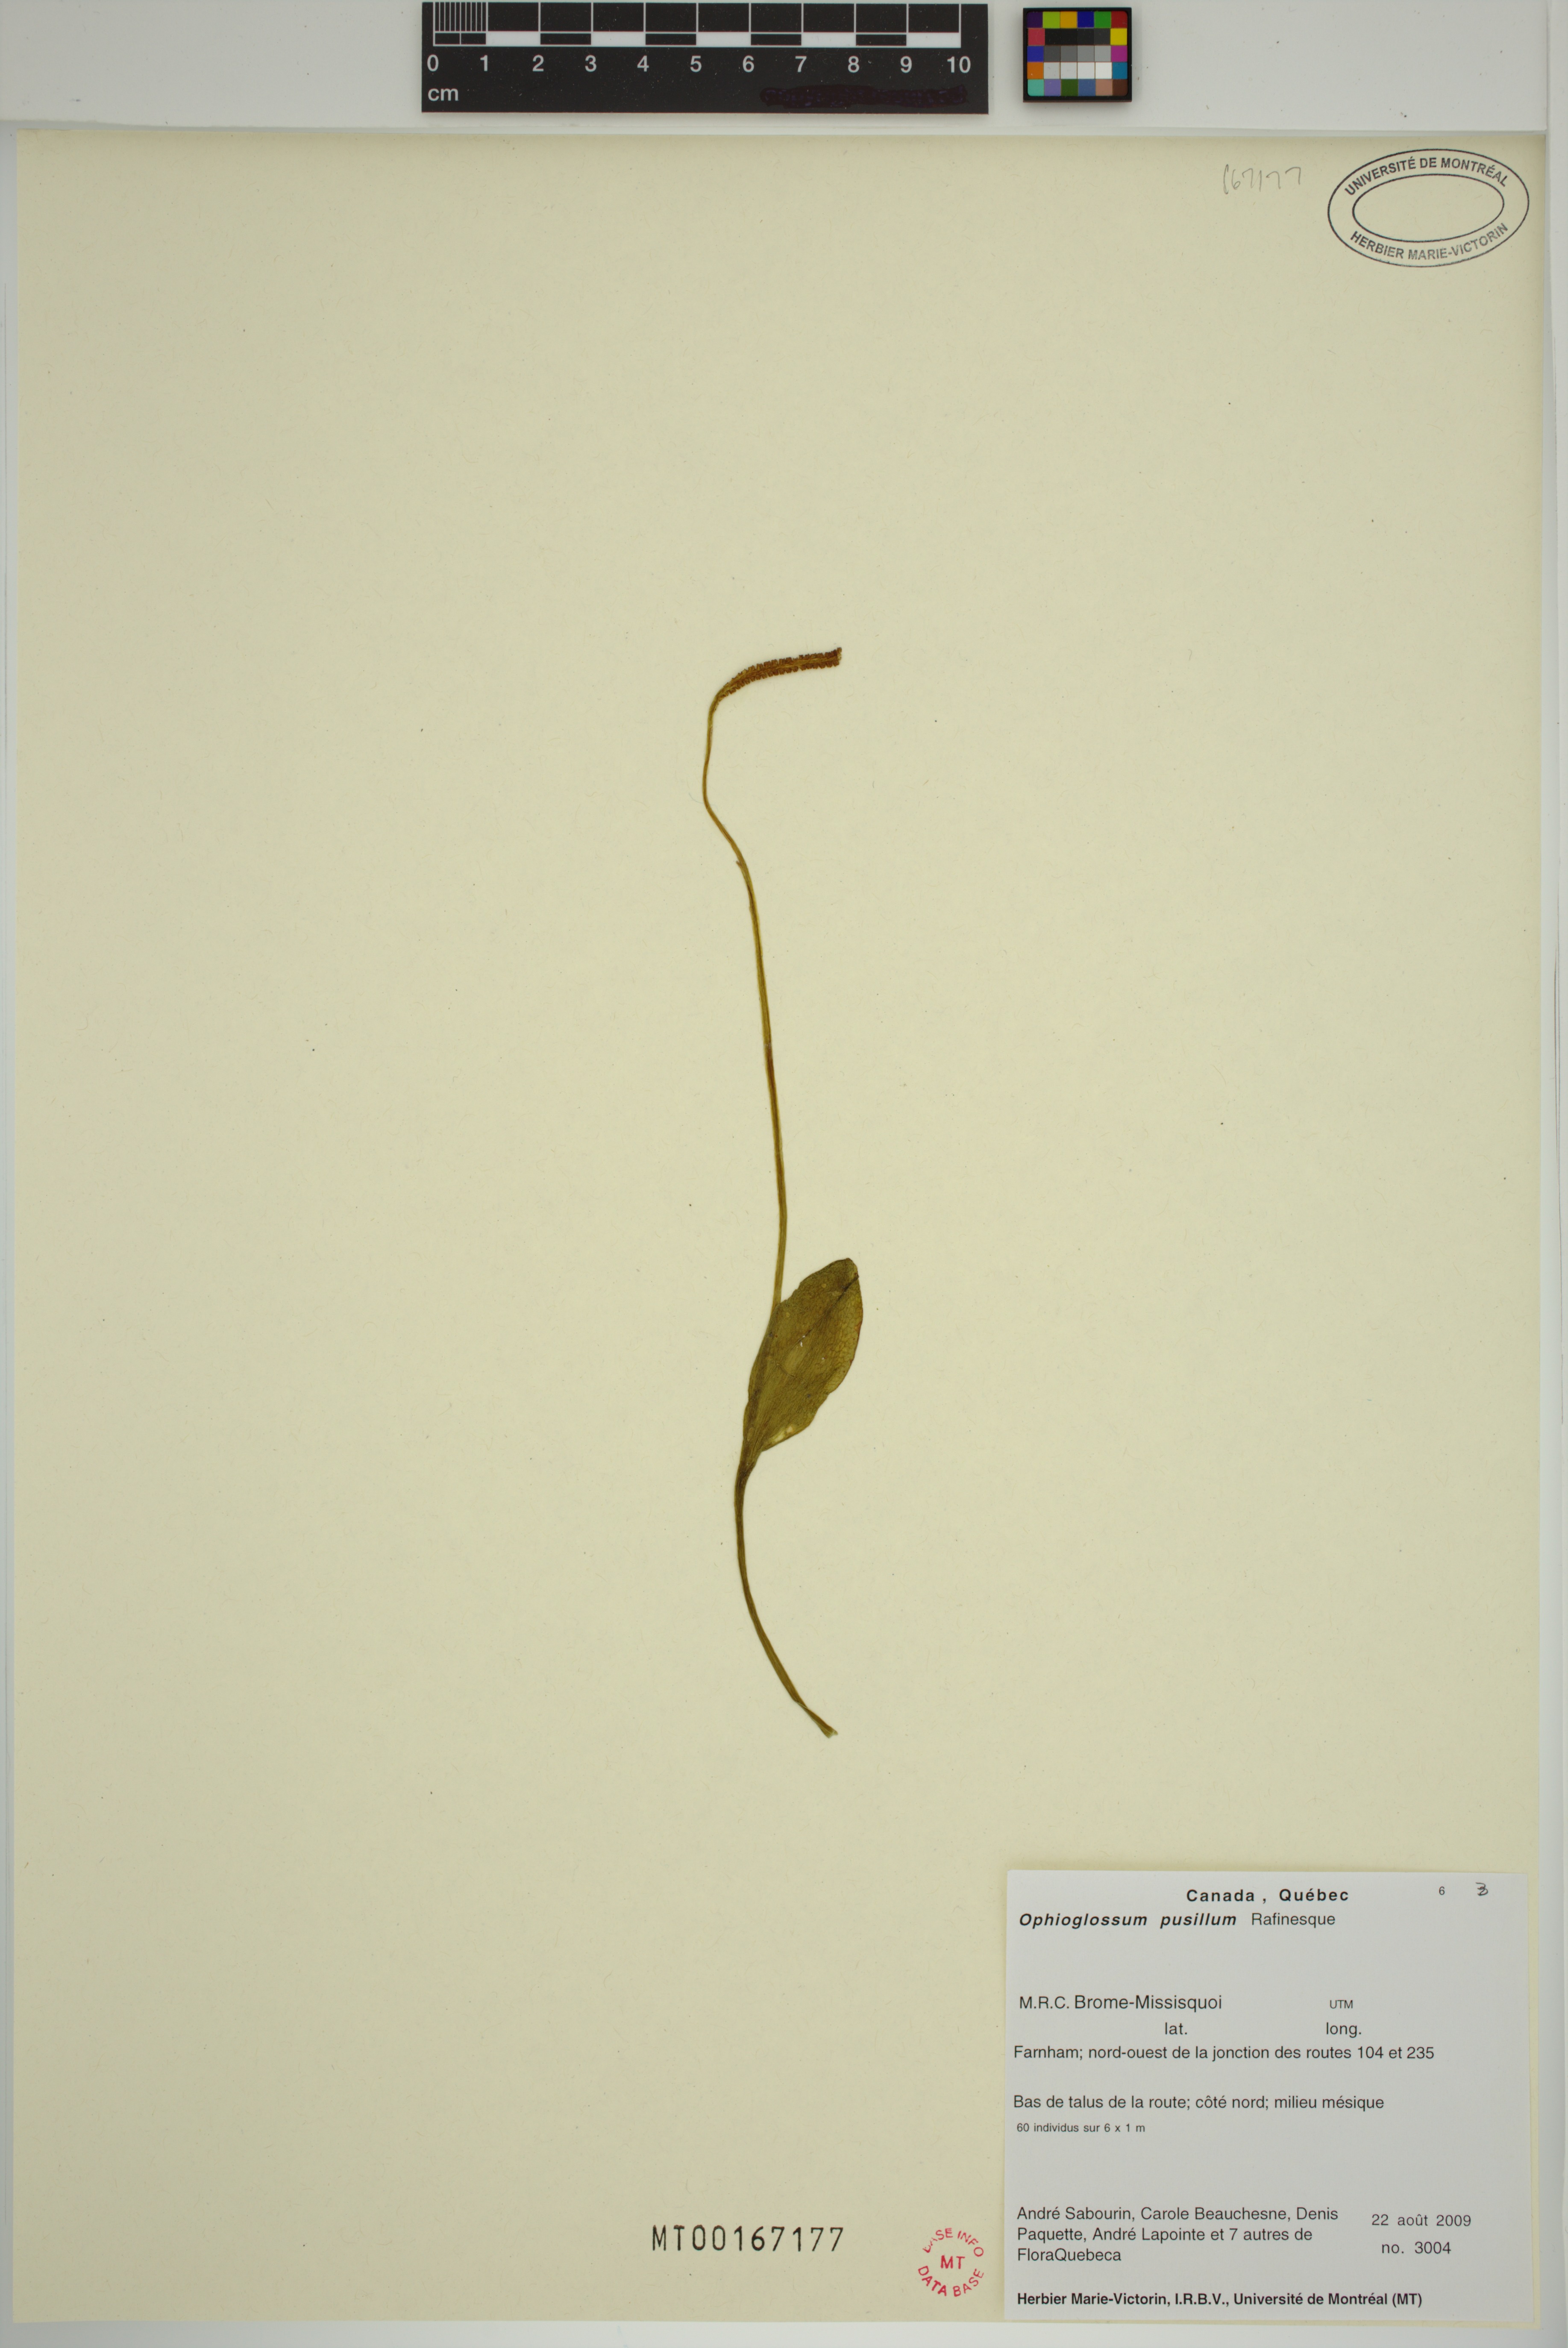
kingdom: Plantae
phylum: Tracheophyta
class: Polypodiopsida
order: Ophioglossales
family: Ophioglossaceae
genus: Ophioglossum
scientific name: Ophioglossum pusillum
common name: Northern adder's-tongue
